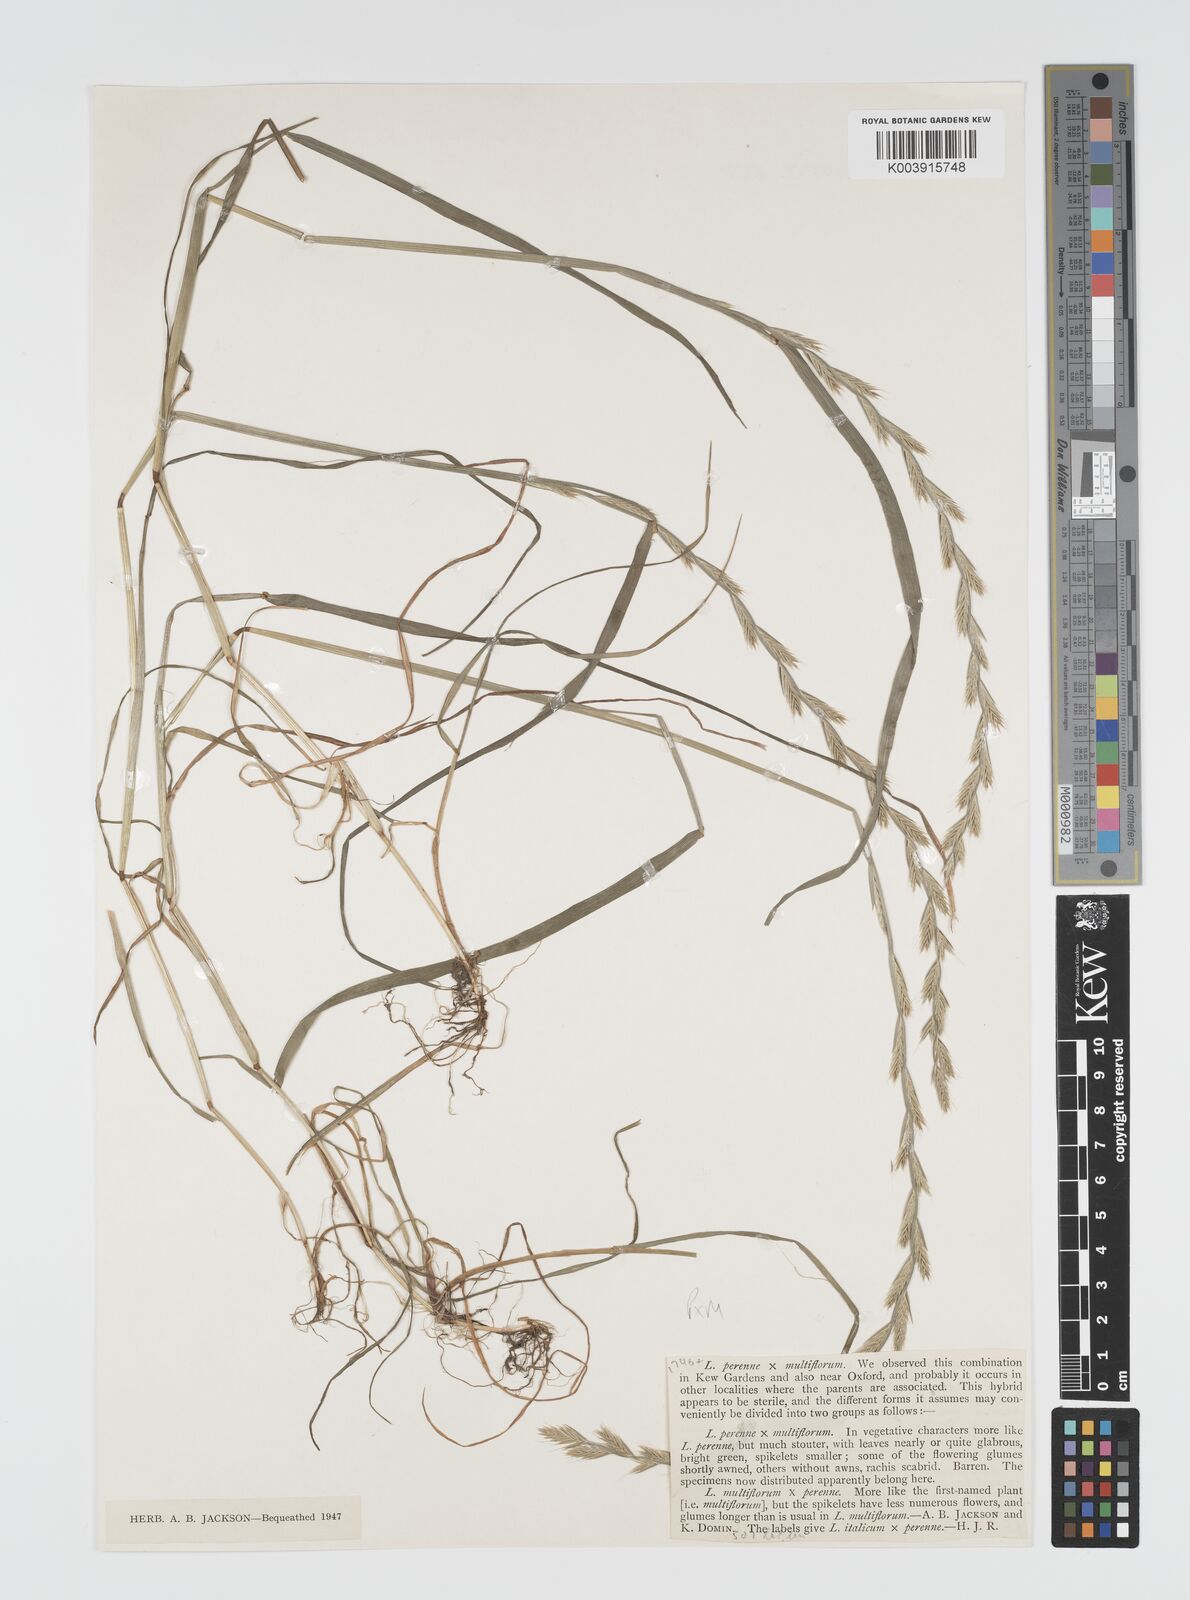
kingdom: Plantae
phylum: Tracheophyta
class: Liliopsida
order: Poales
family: Poaceae
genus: Lolium
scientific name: Lolium boucheanum
